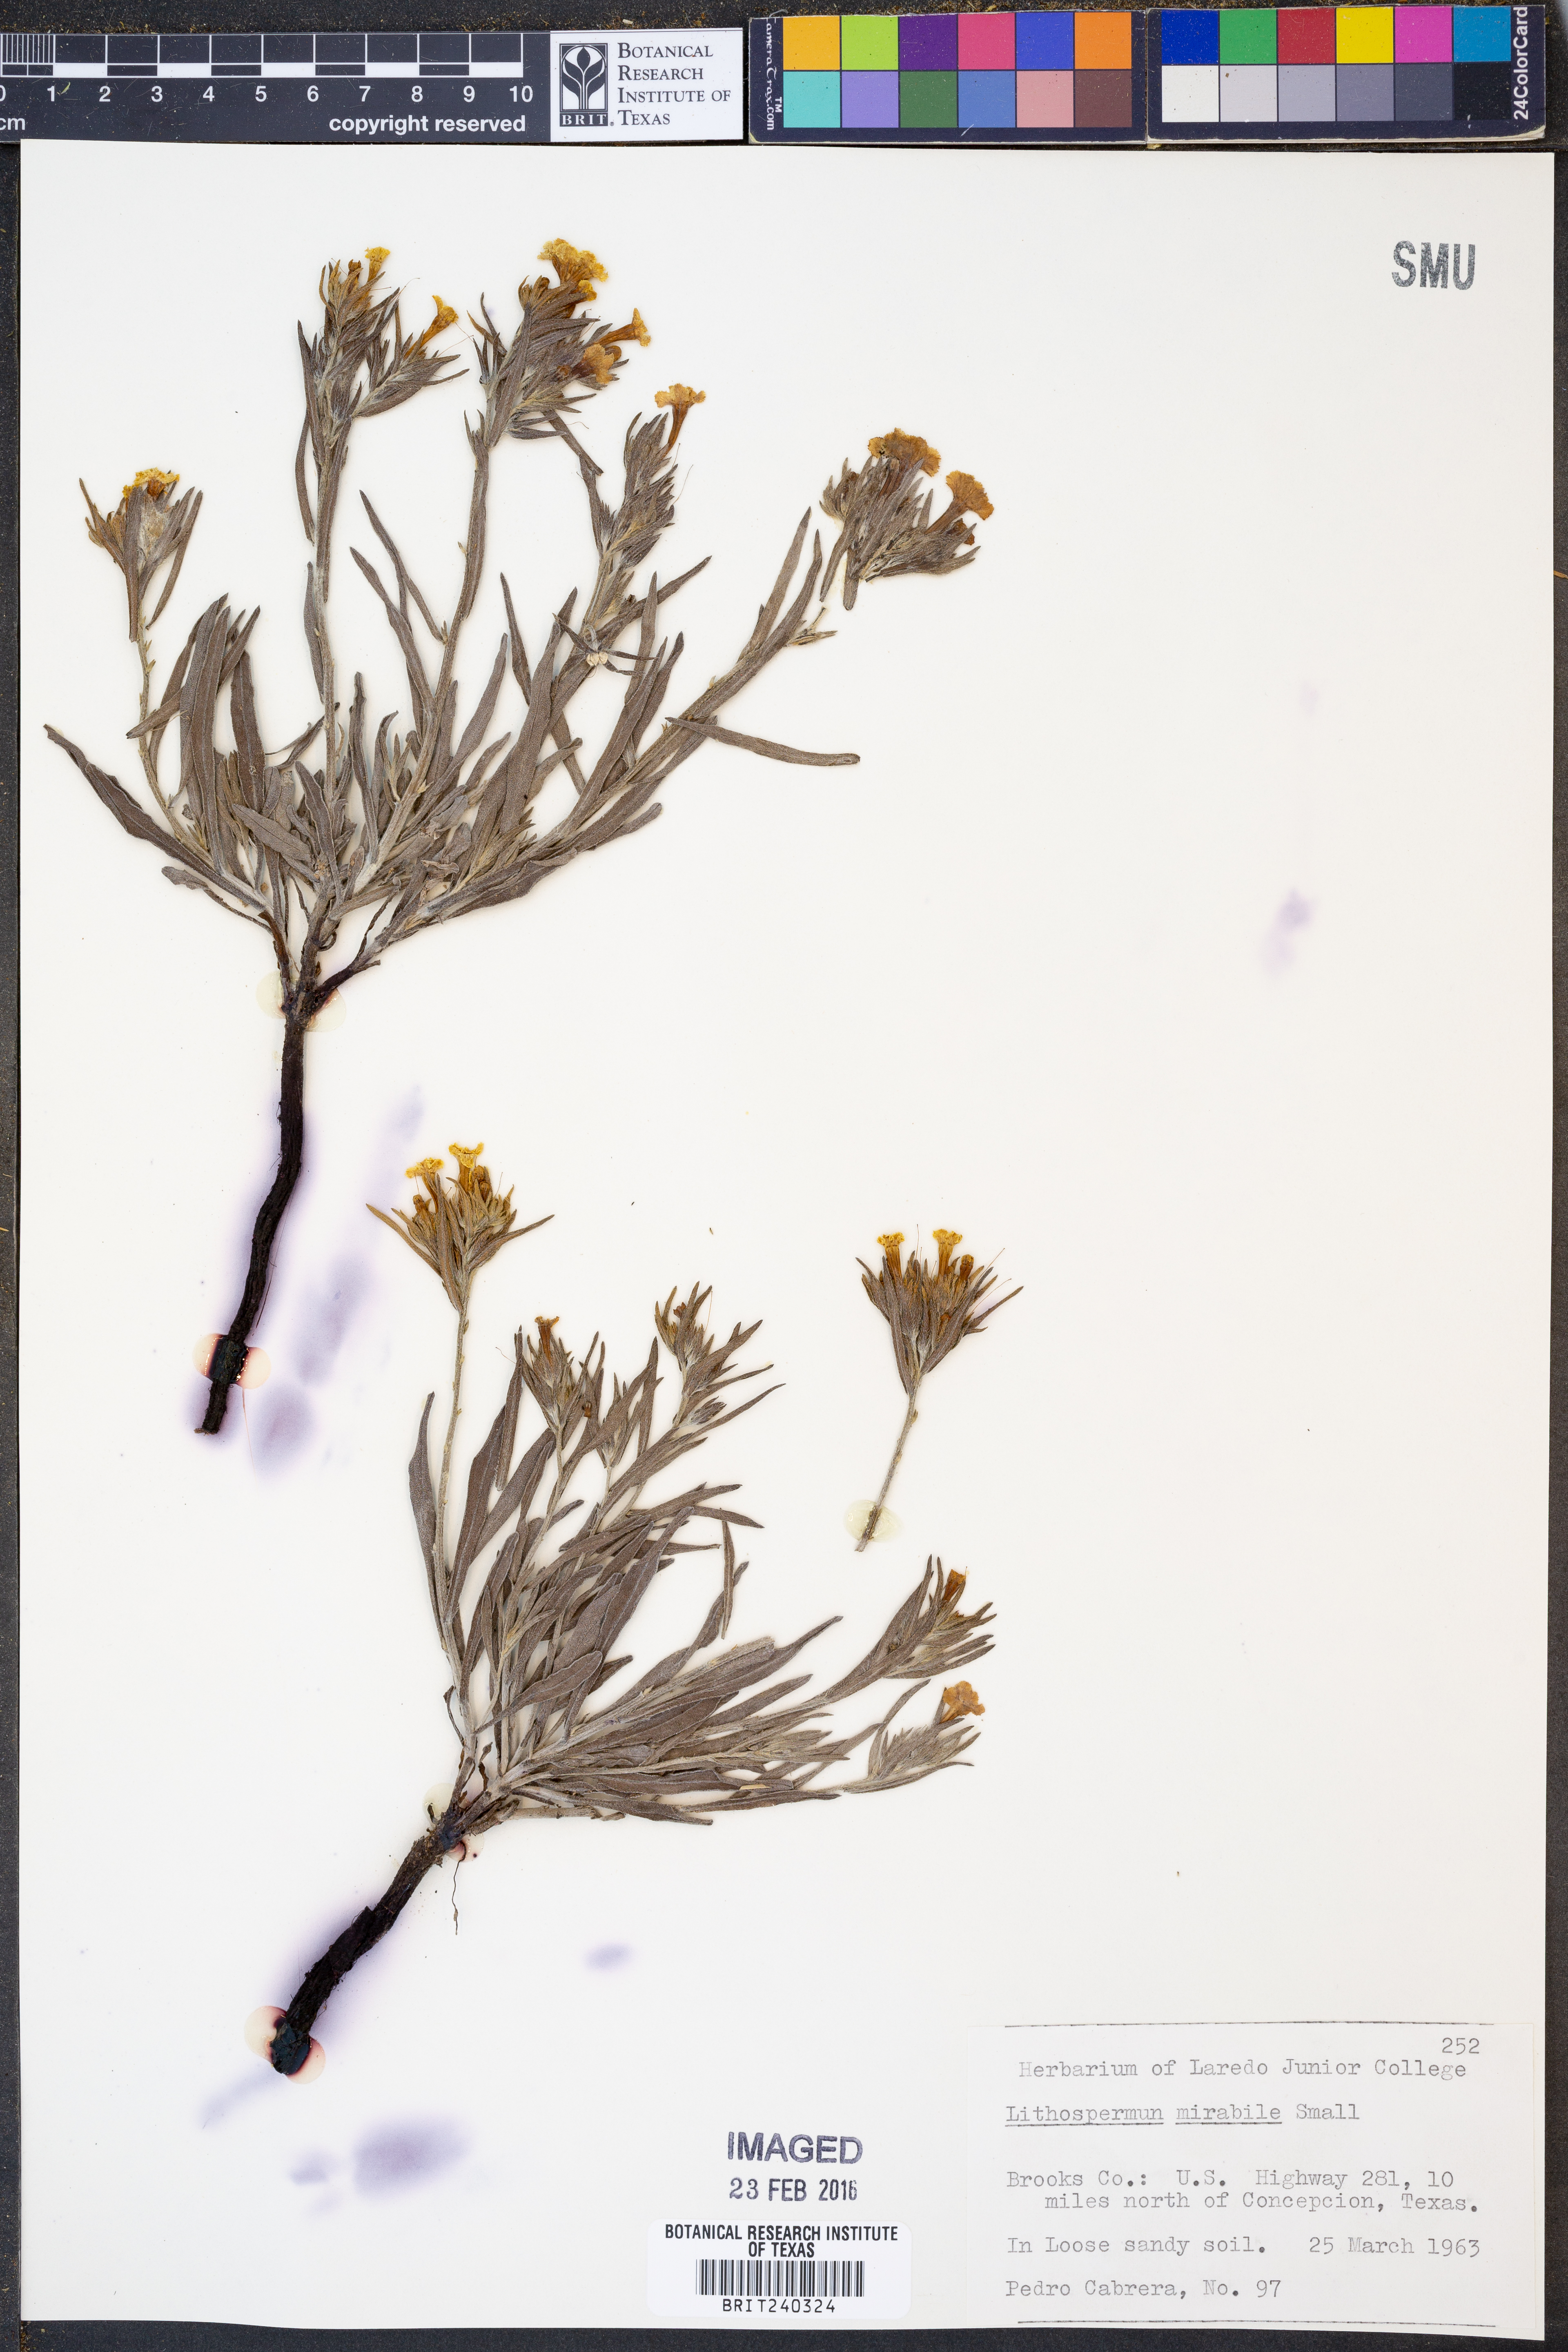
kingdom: Plantae
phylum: Tracheophyta
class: Magnoliopsida
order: Boraginales
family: Boraginaceae
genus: Lithospermum
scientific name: Lithospermum mirabile
